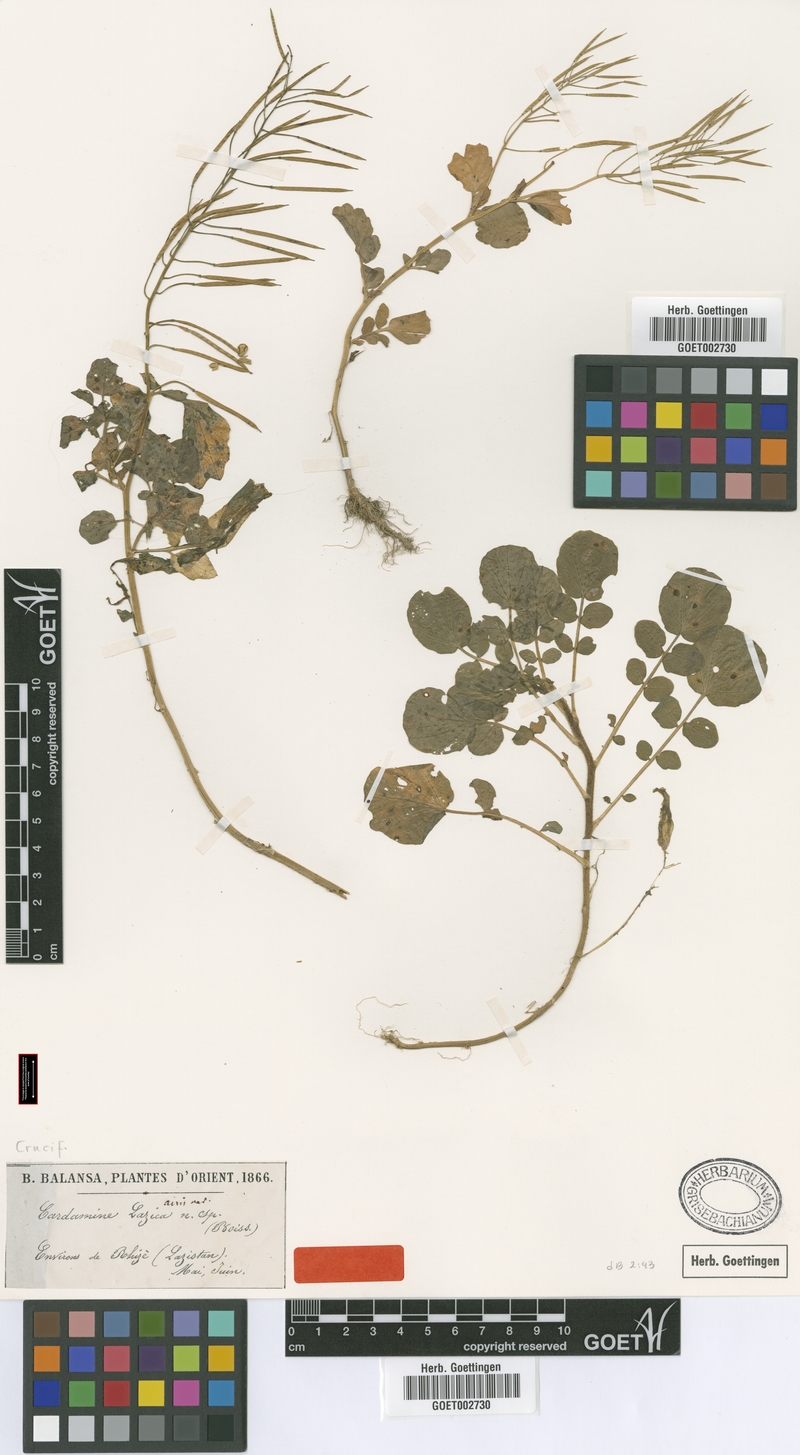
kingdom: Plantae
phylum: Tracheophyta
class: Magnoliopsida
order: Brassicales
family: Brassicaceae
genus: Cardamine
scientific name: Cardamine lazica
